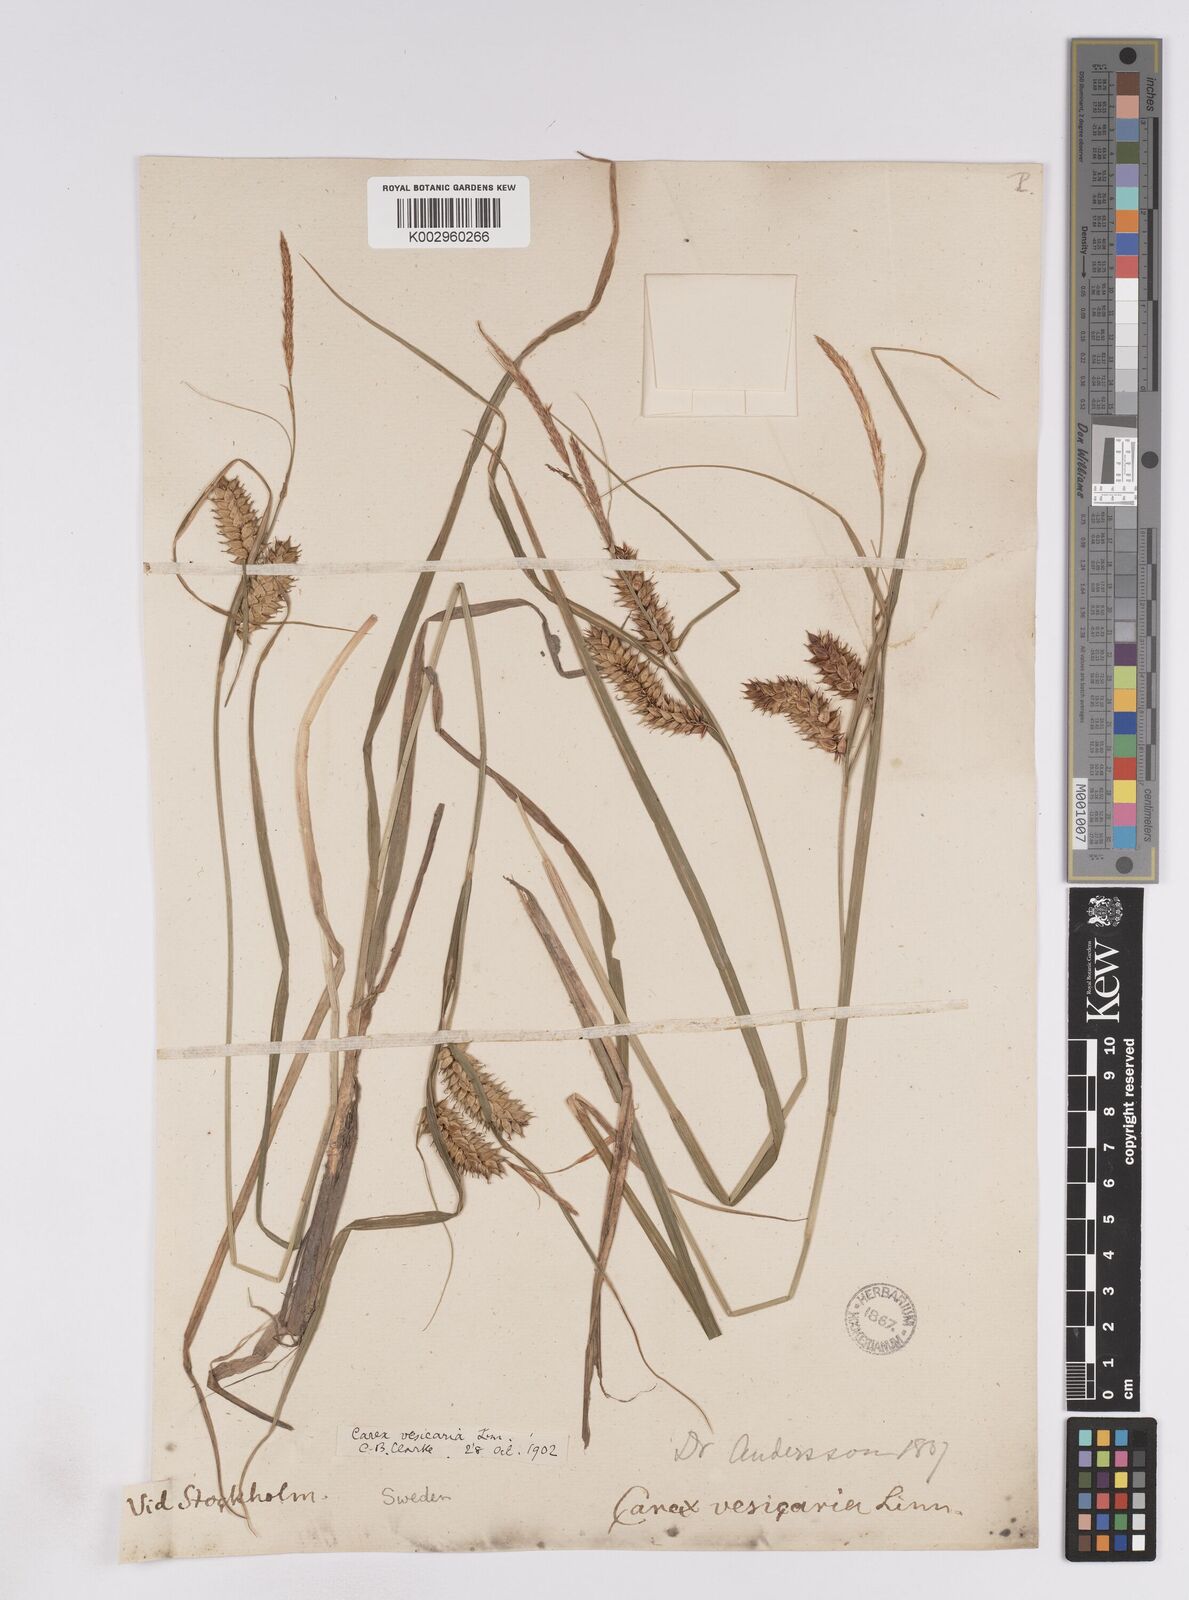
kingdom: Plantae
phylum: Tracheophyta
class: Liliopsida
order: Poales
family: Cyperaceae
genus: Carex
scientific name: Carex vesicaria
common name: Bladder-sedge
